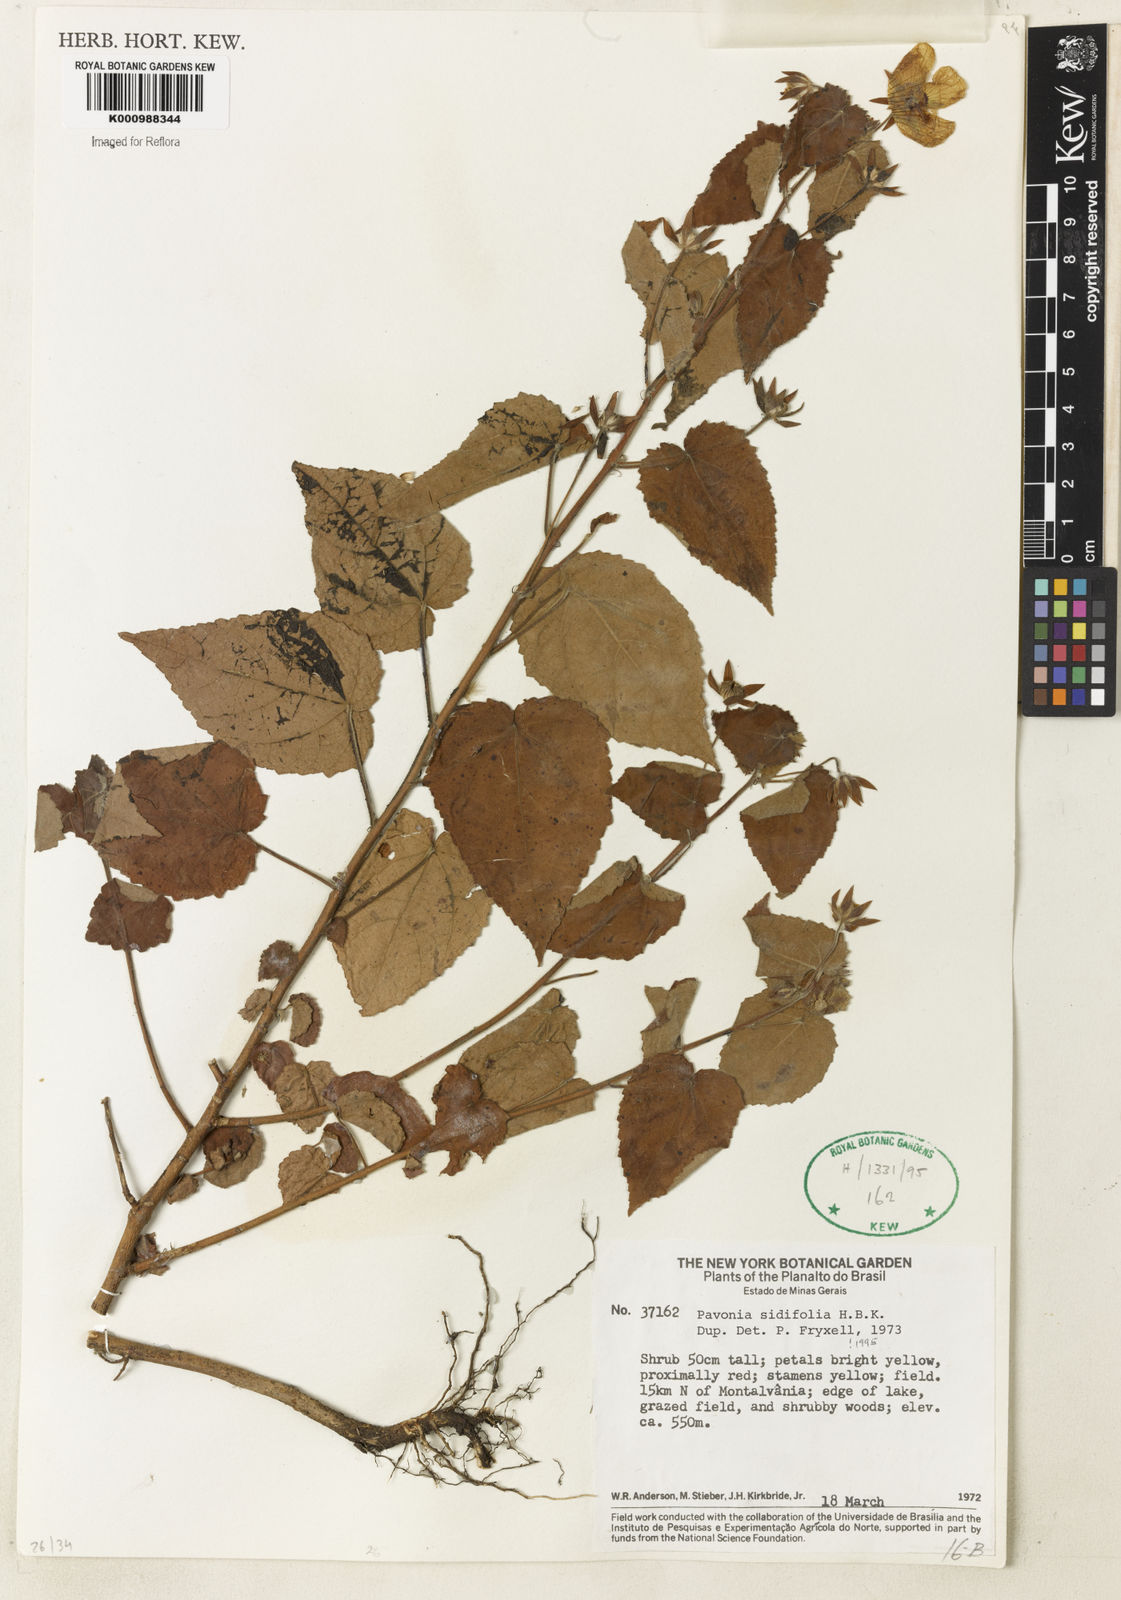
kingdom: Plantae
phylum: Tracheophyta
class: Magnoliopsida
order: Malvales
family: Malvaceae
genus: Pavonia
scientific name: Pavonia sidifolia
